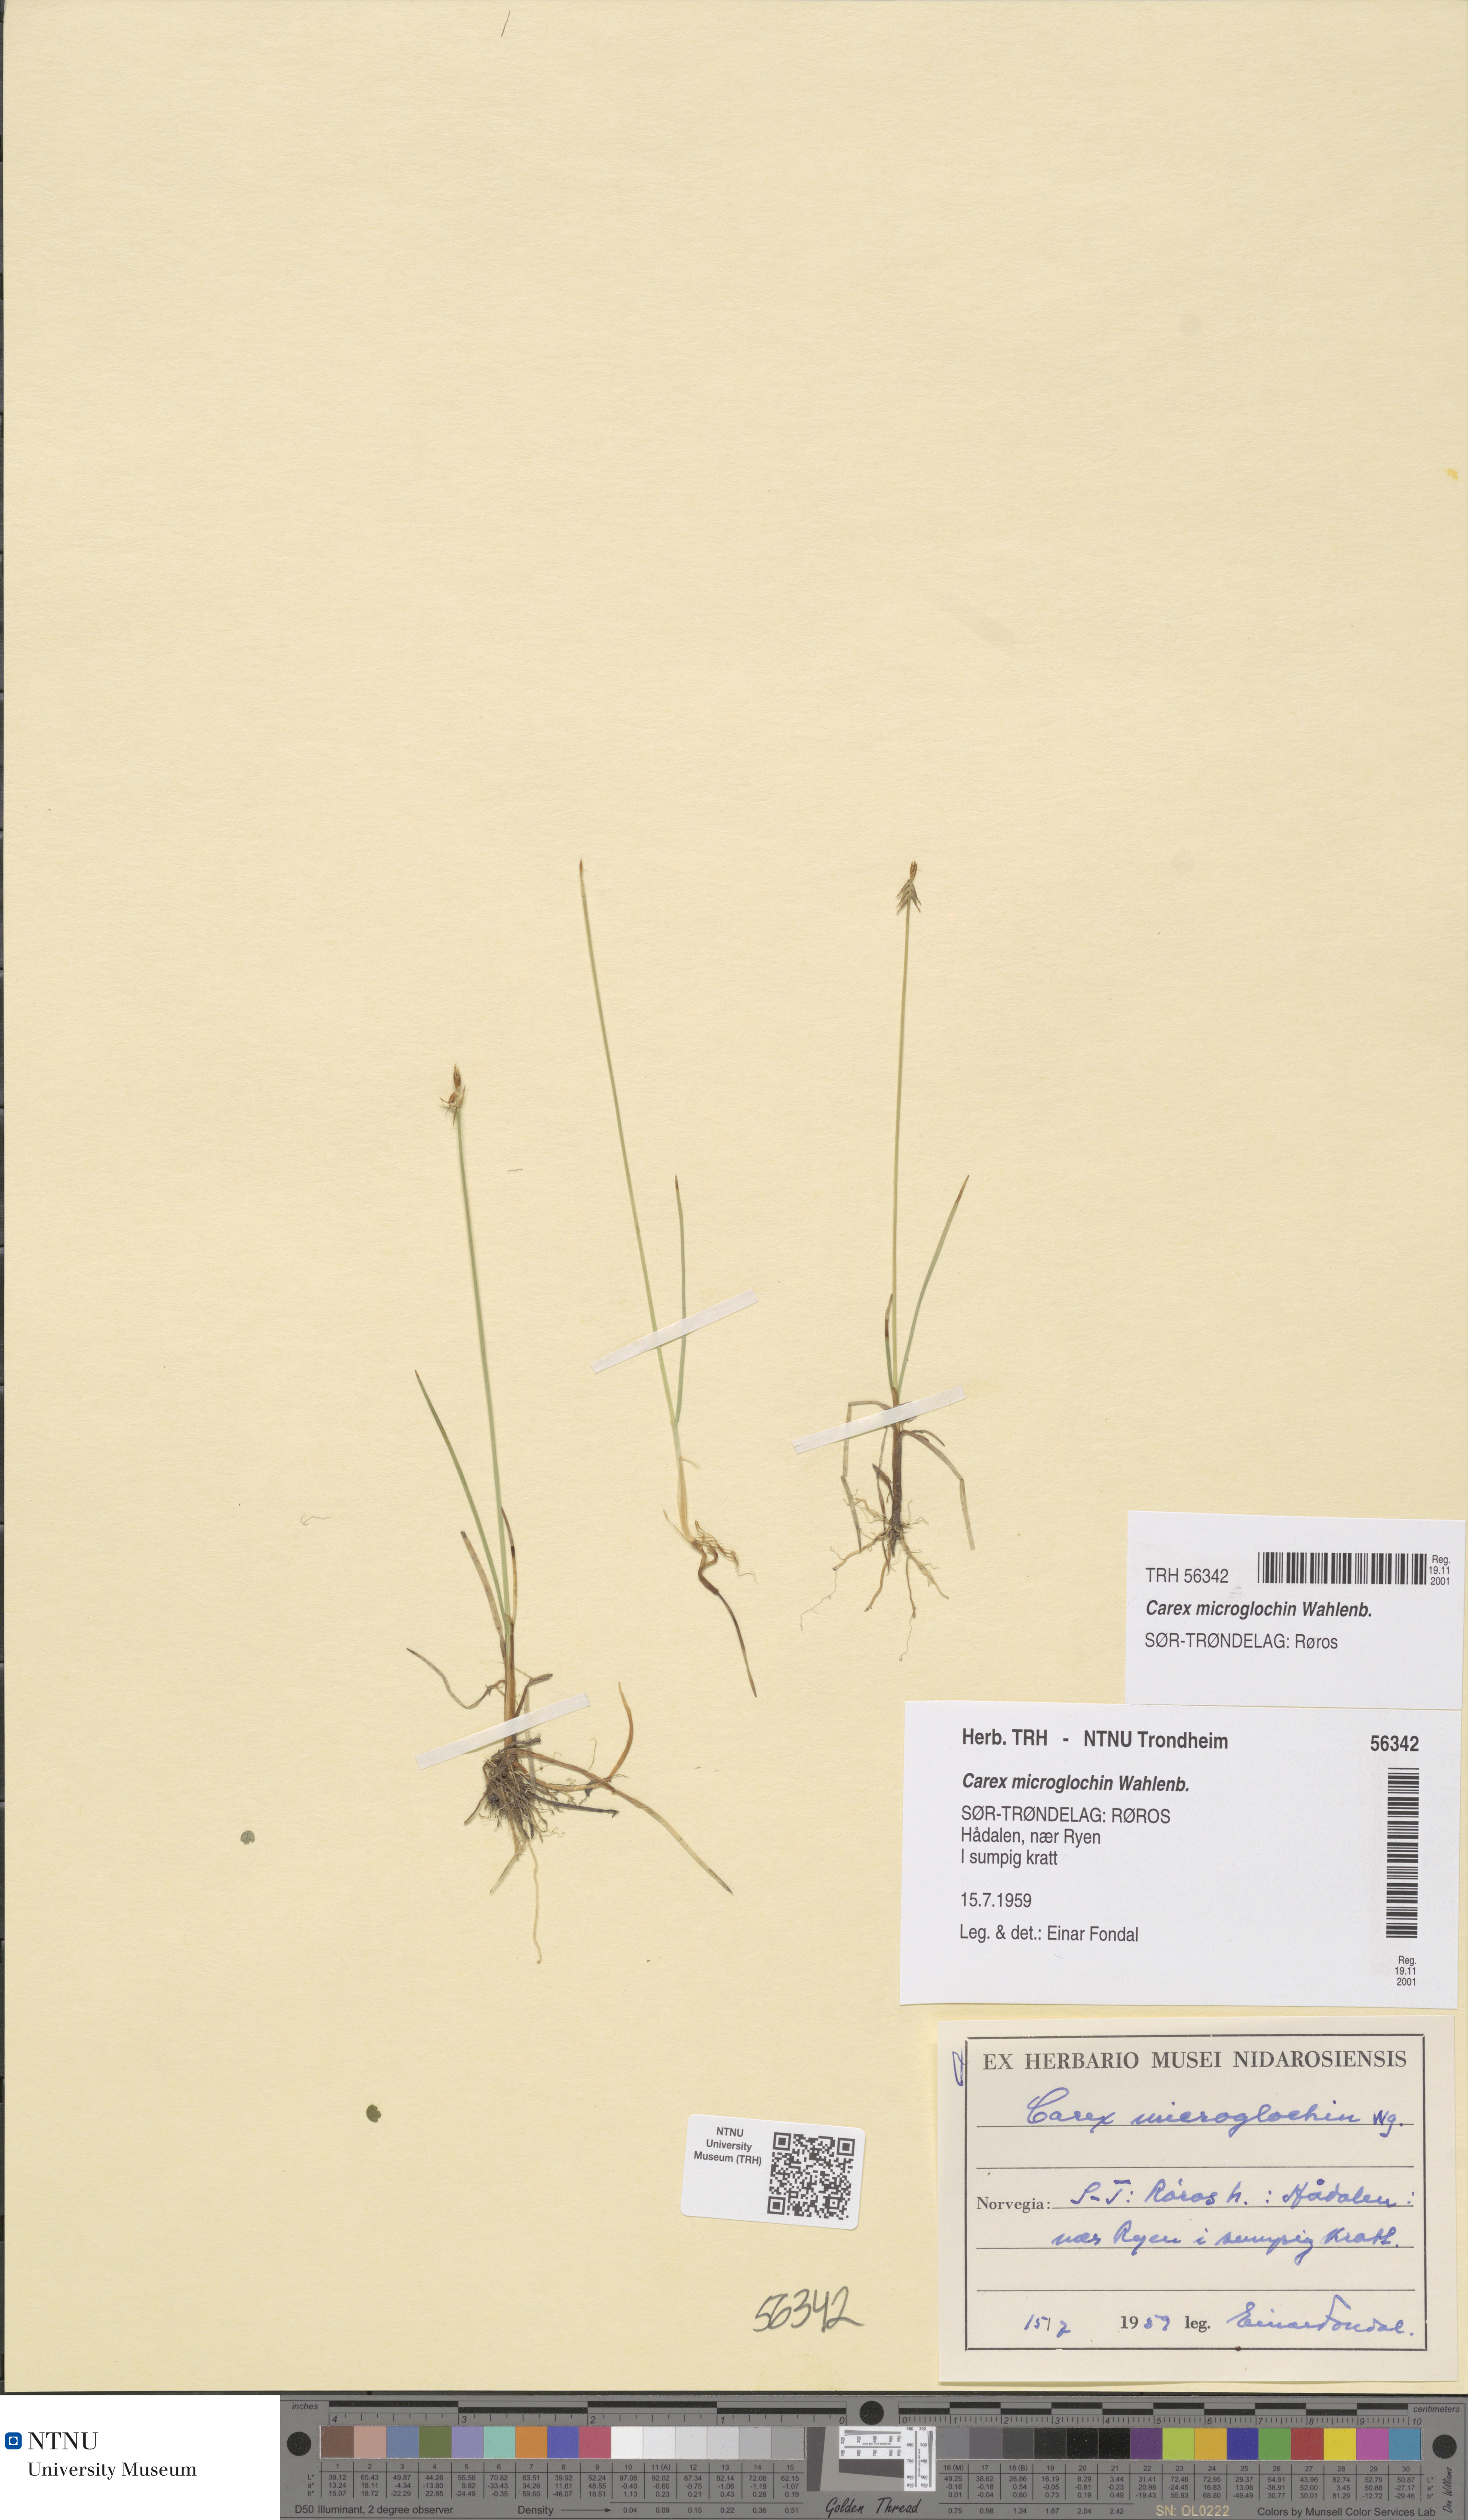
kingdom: Plantae
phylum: Tracheophyta
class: Liliopsida
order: Poales
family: Cyperaceae
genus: Carex
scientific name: Carex microglochin
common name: Bristle sedge
